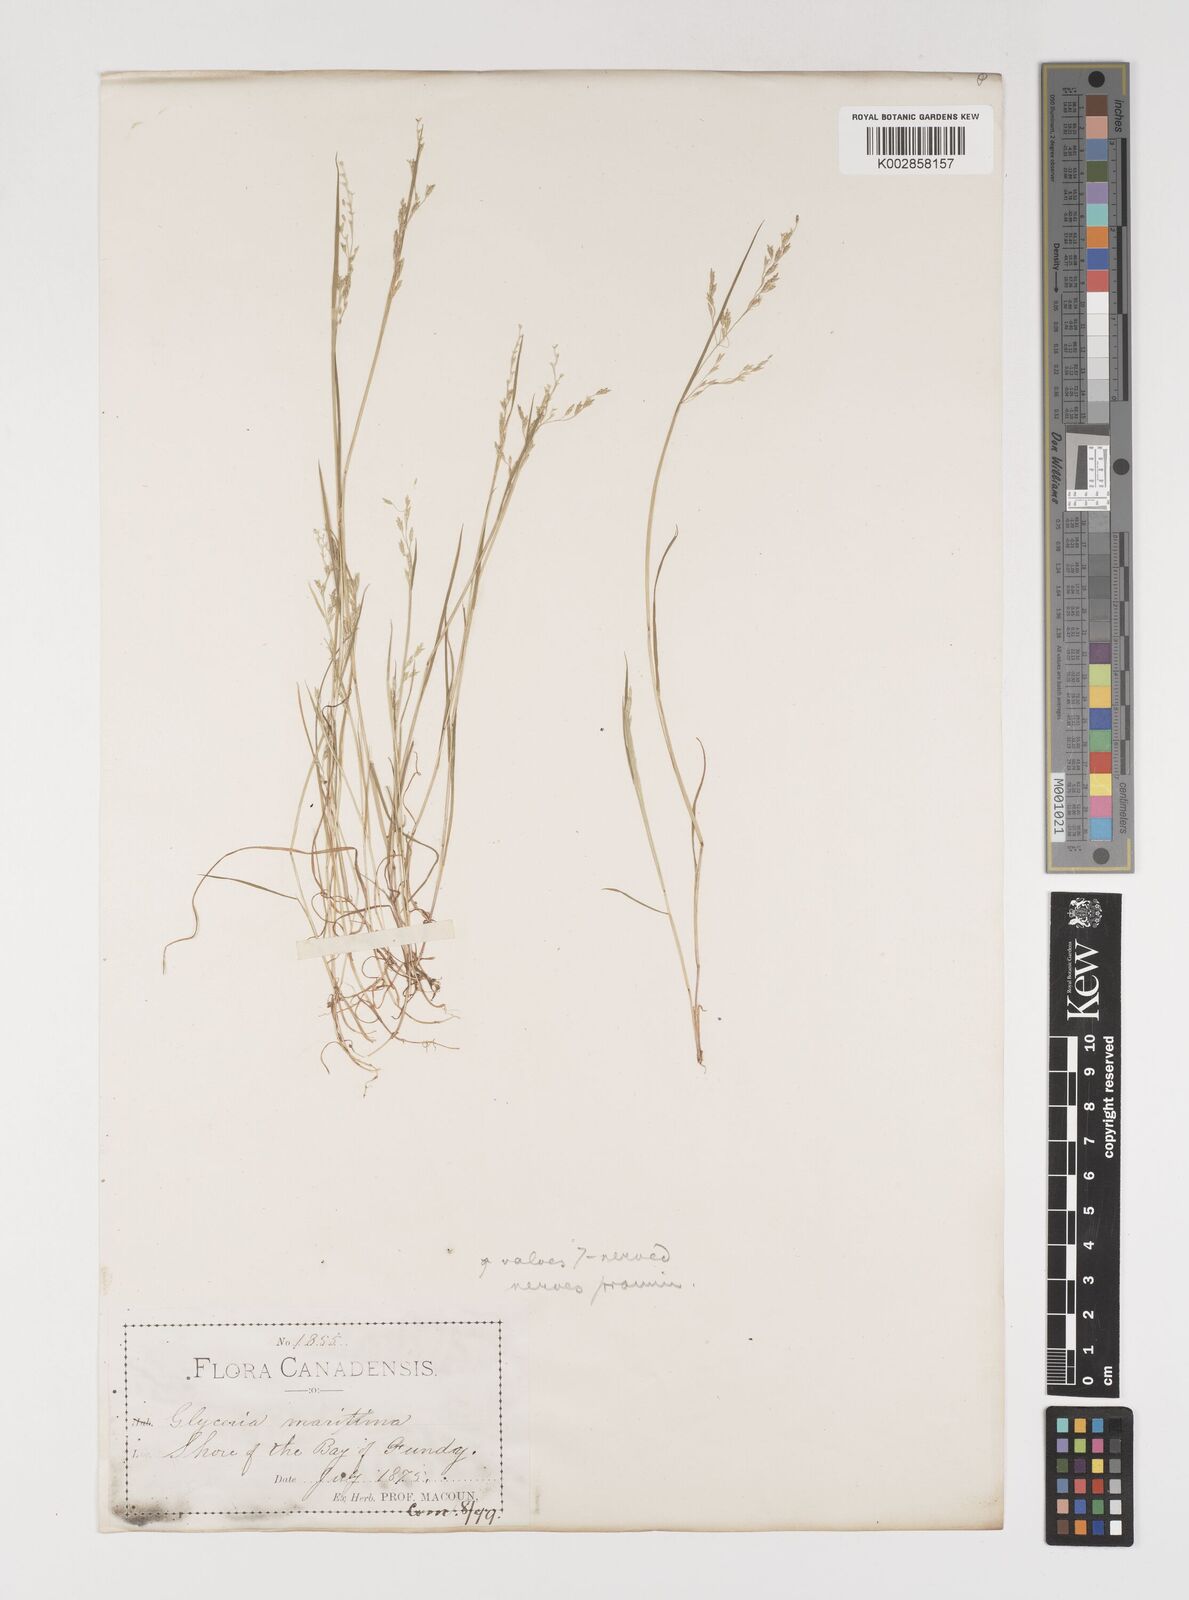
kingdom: Plantae
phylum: Tracheophyta
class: Liliopsida
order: Poales
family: Poaceae
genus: Torreyochloa
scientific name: Torreyochloa pallida
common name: Pale false mannagrass
